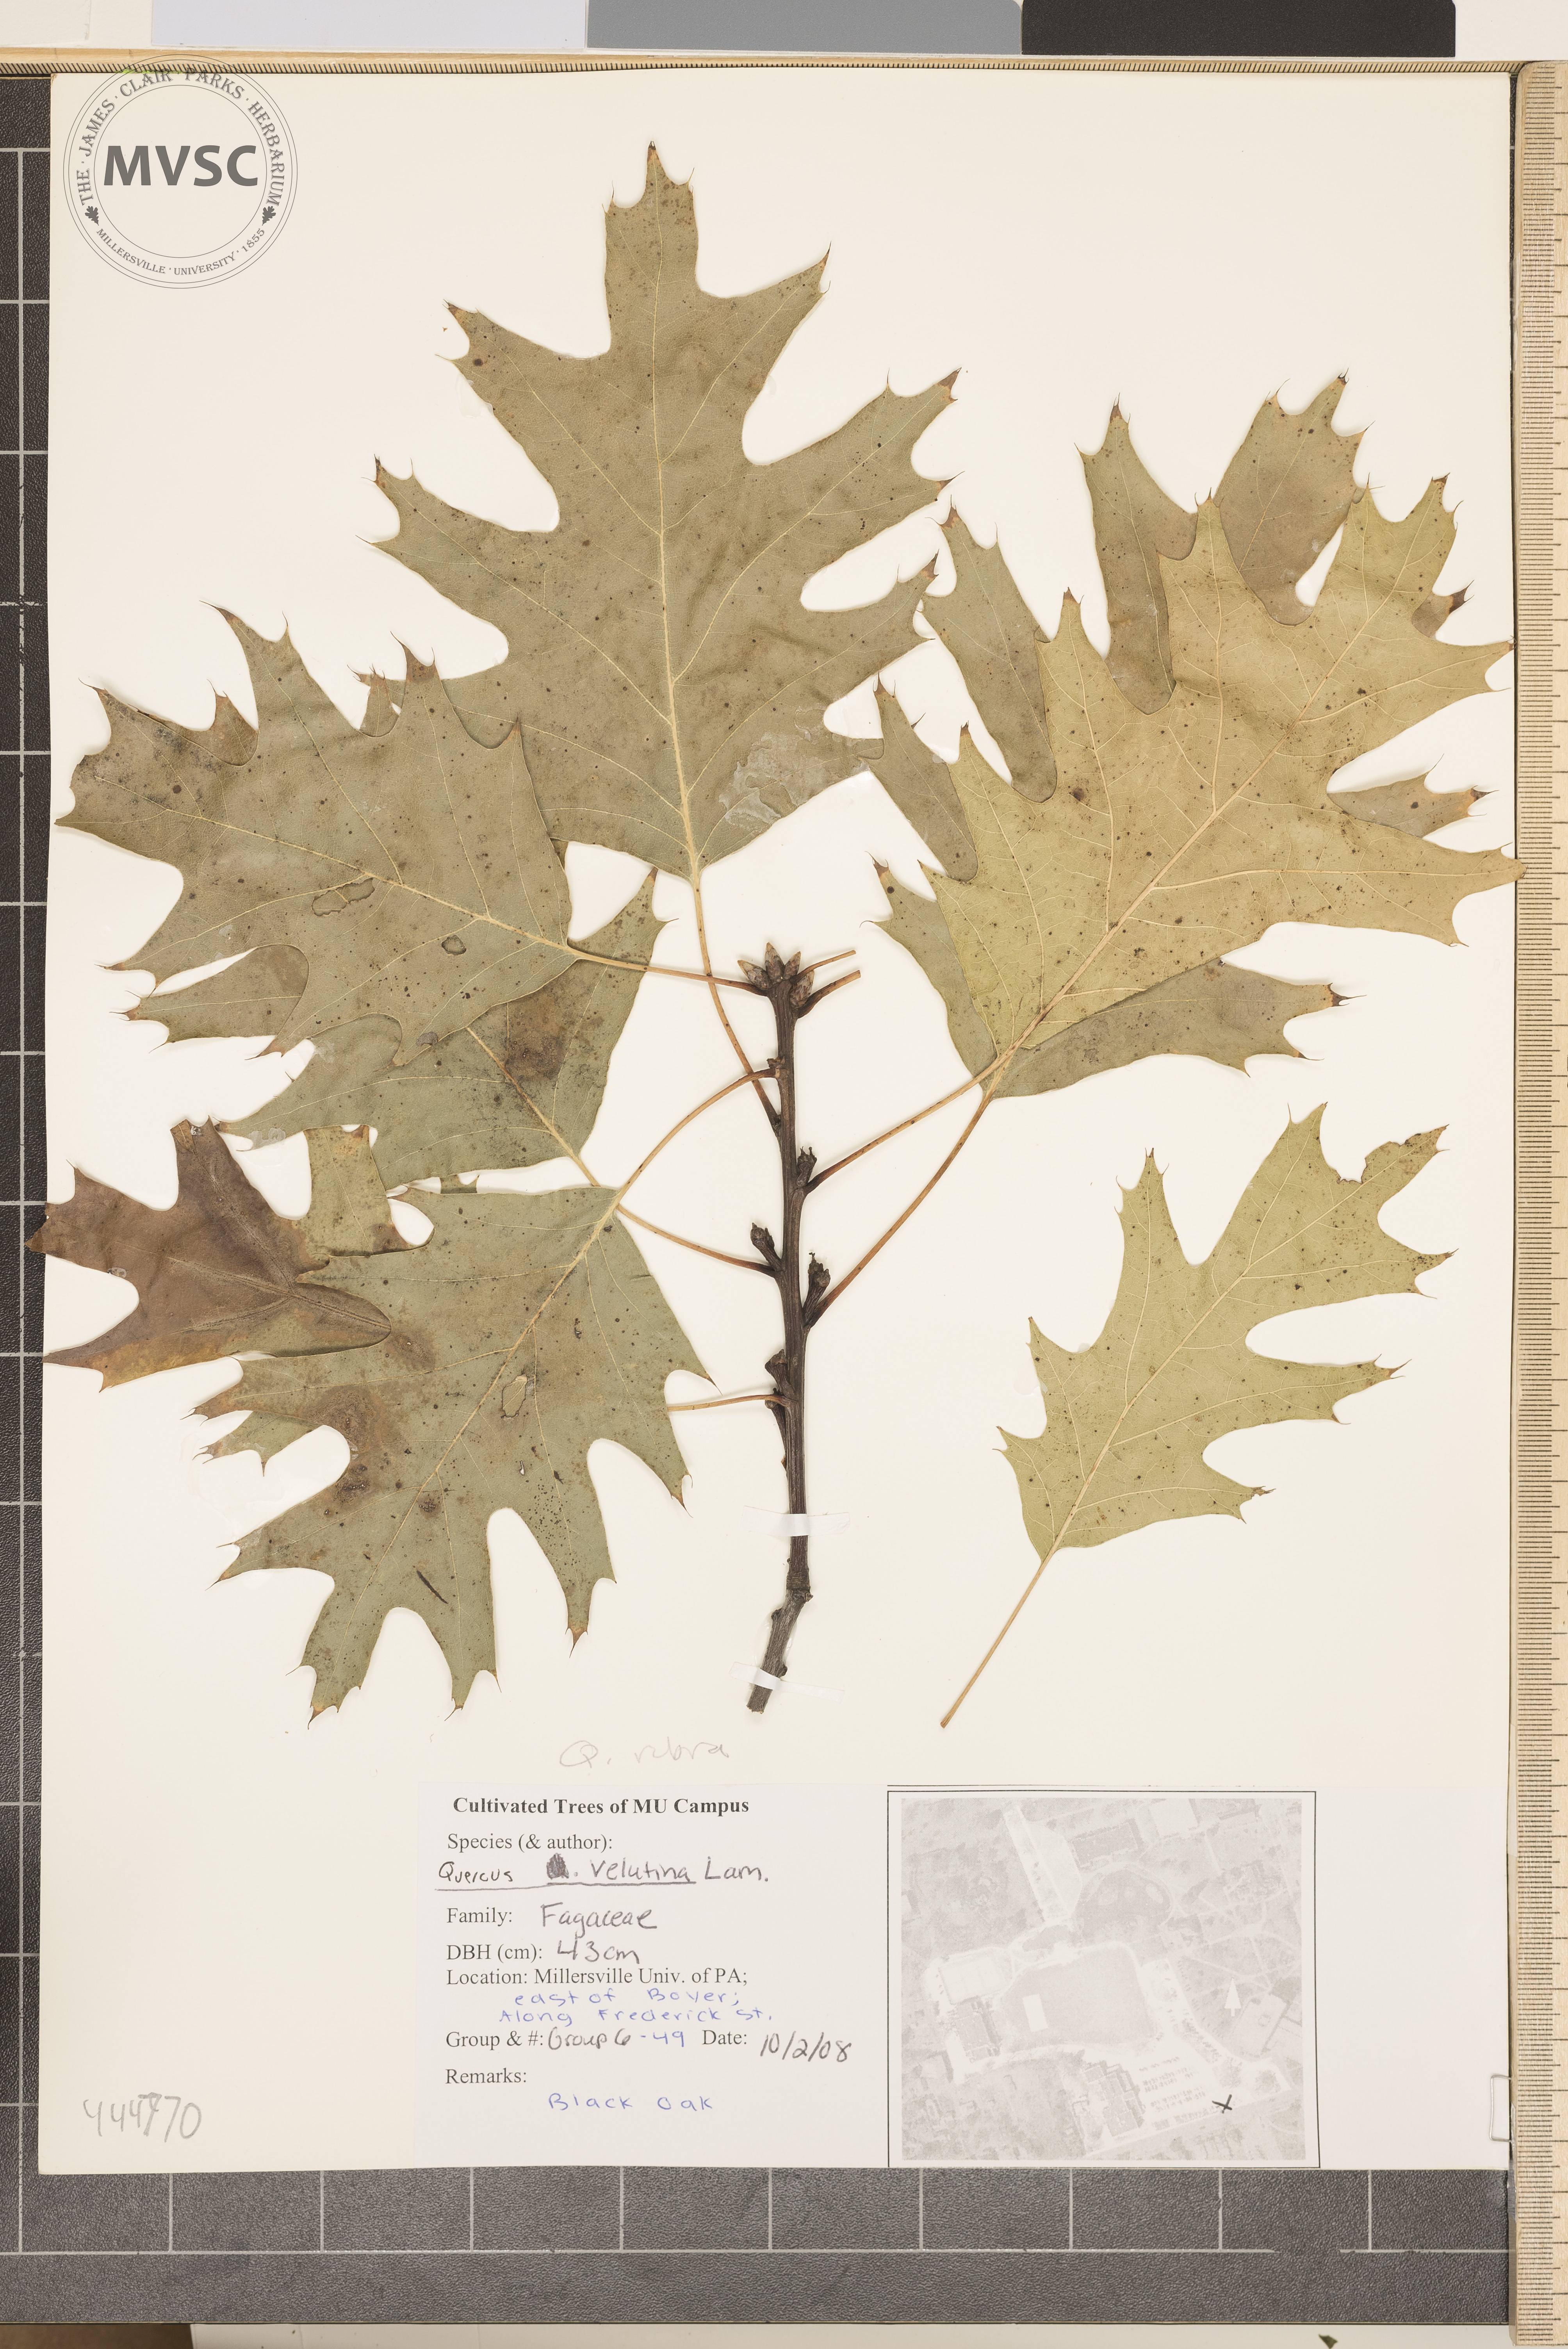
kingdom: Plantae
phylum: Tracheophyta
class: Magnoliopsida
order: Fagales
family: Fagaceae
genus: Quercus
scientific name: Quercus rubra
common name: Red oak
